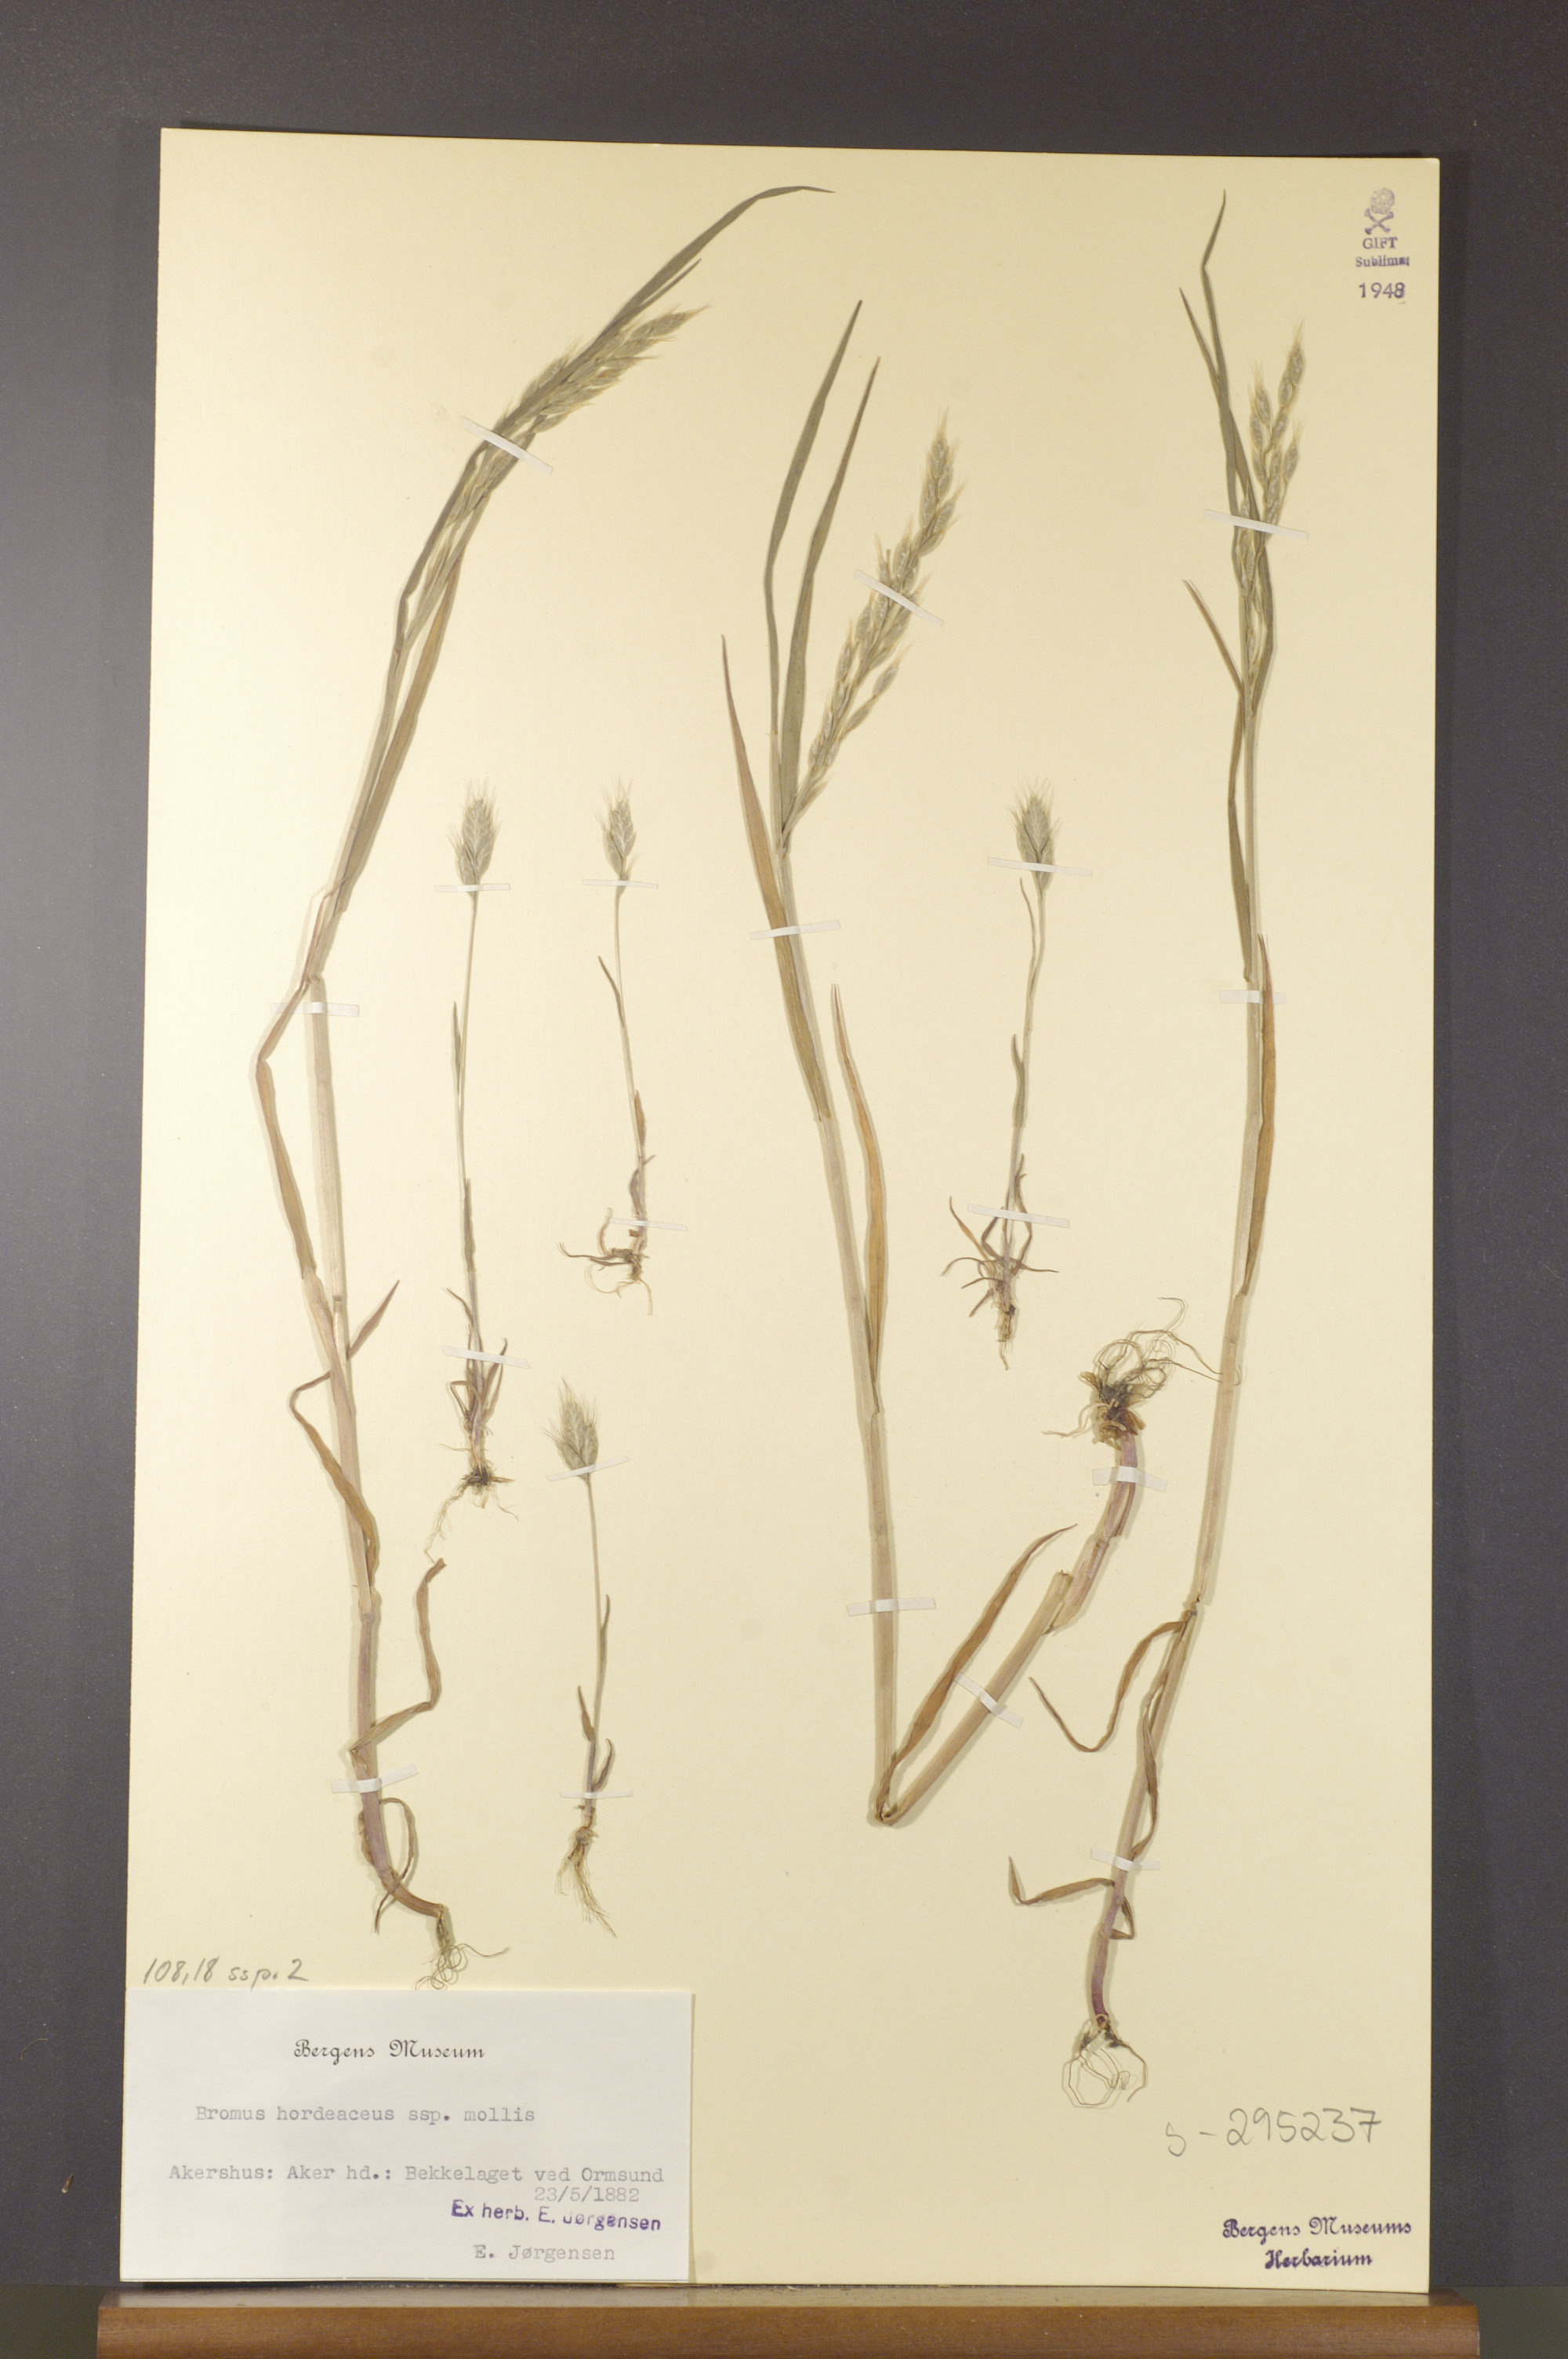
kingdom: Plantae
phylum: Tracheophyta
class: Liliopsida
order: Poales
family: Poaceae
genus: Bromus
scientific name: Bromus hordeaceus
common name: Soft brome
